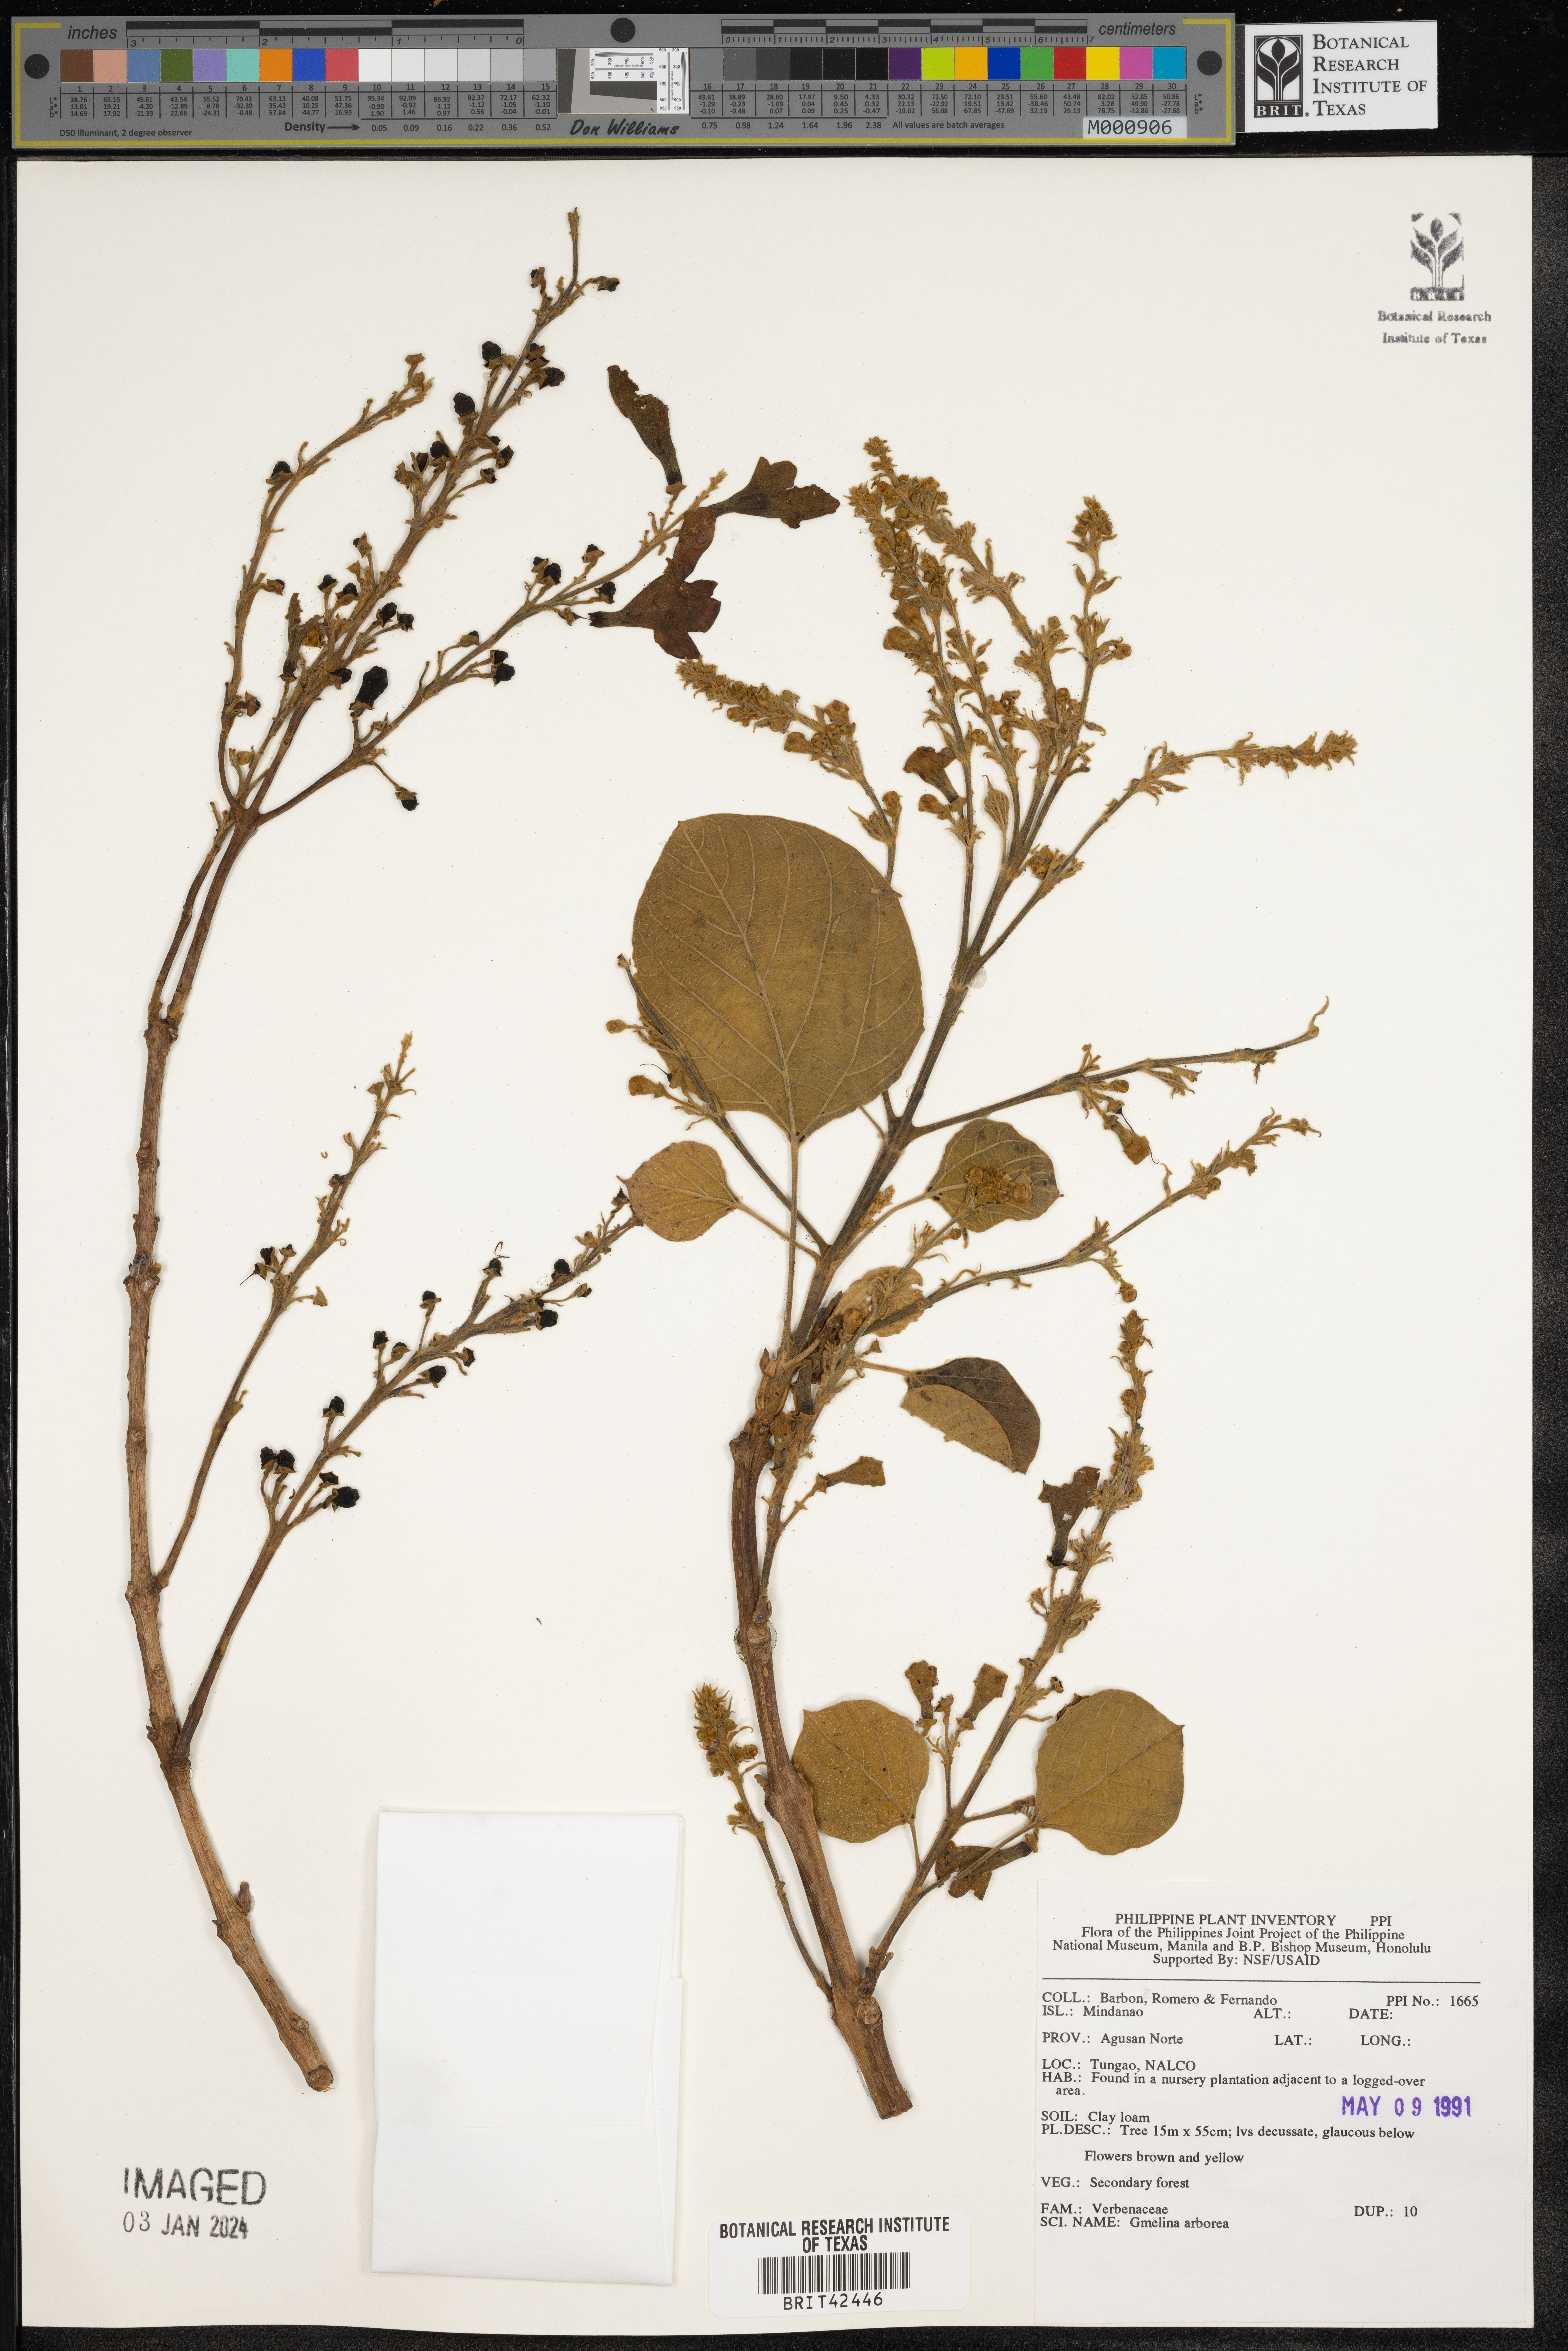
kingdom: Plantae
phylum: Tracheophyta
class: Magnoliopsida
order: Lamiales
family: Lamiaceae
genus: Gmelina
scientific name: Gmelina arborea
